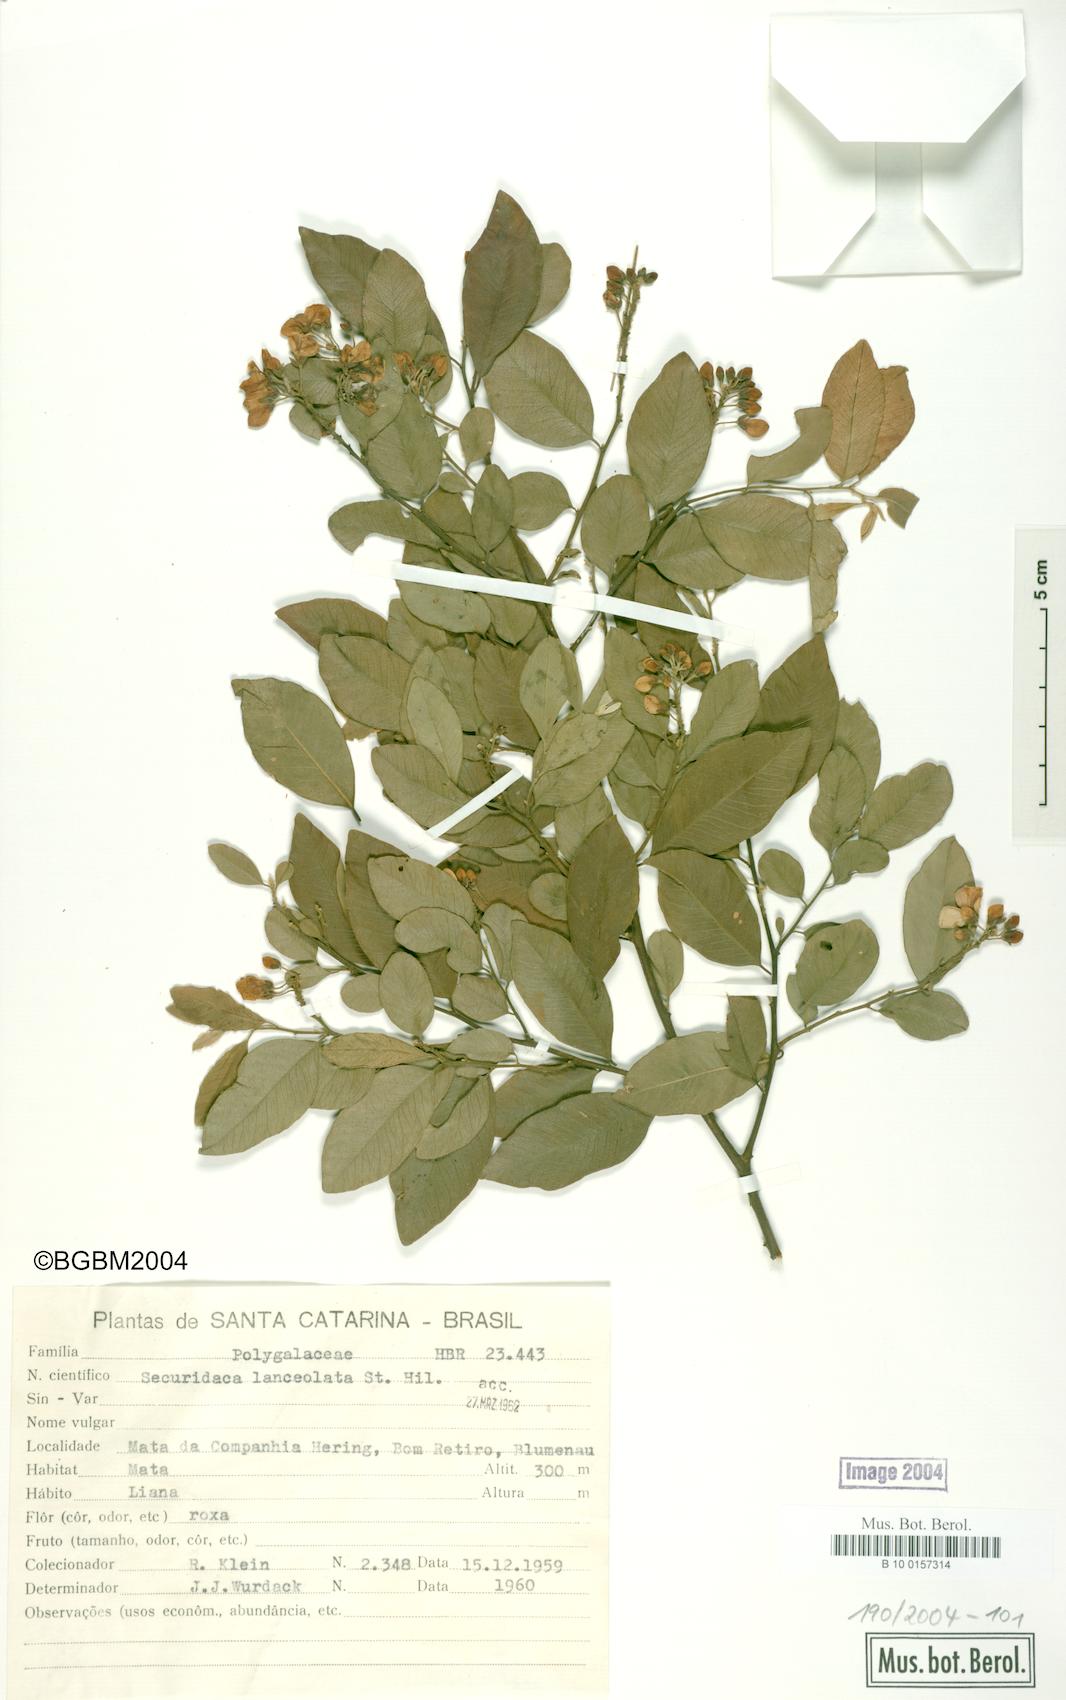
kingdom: Plantae
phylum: Tracheophyta
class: Magnoliopsida
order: Fabales
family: Polygalaceae
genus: Securidaca
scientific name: Securidaca lanceolata
